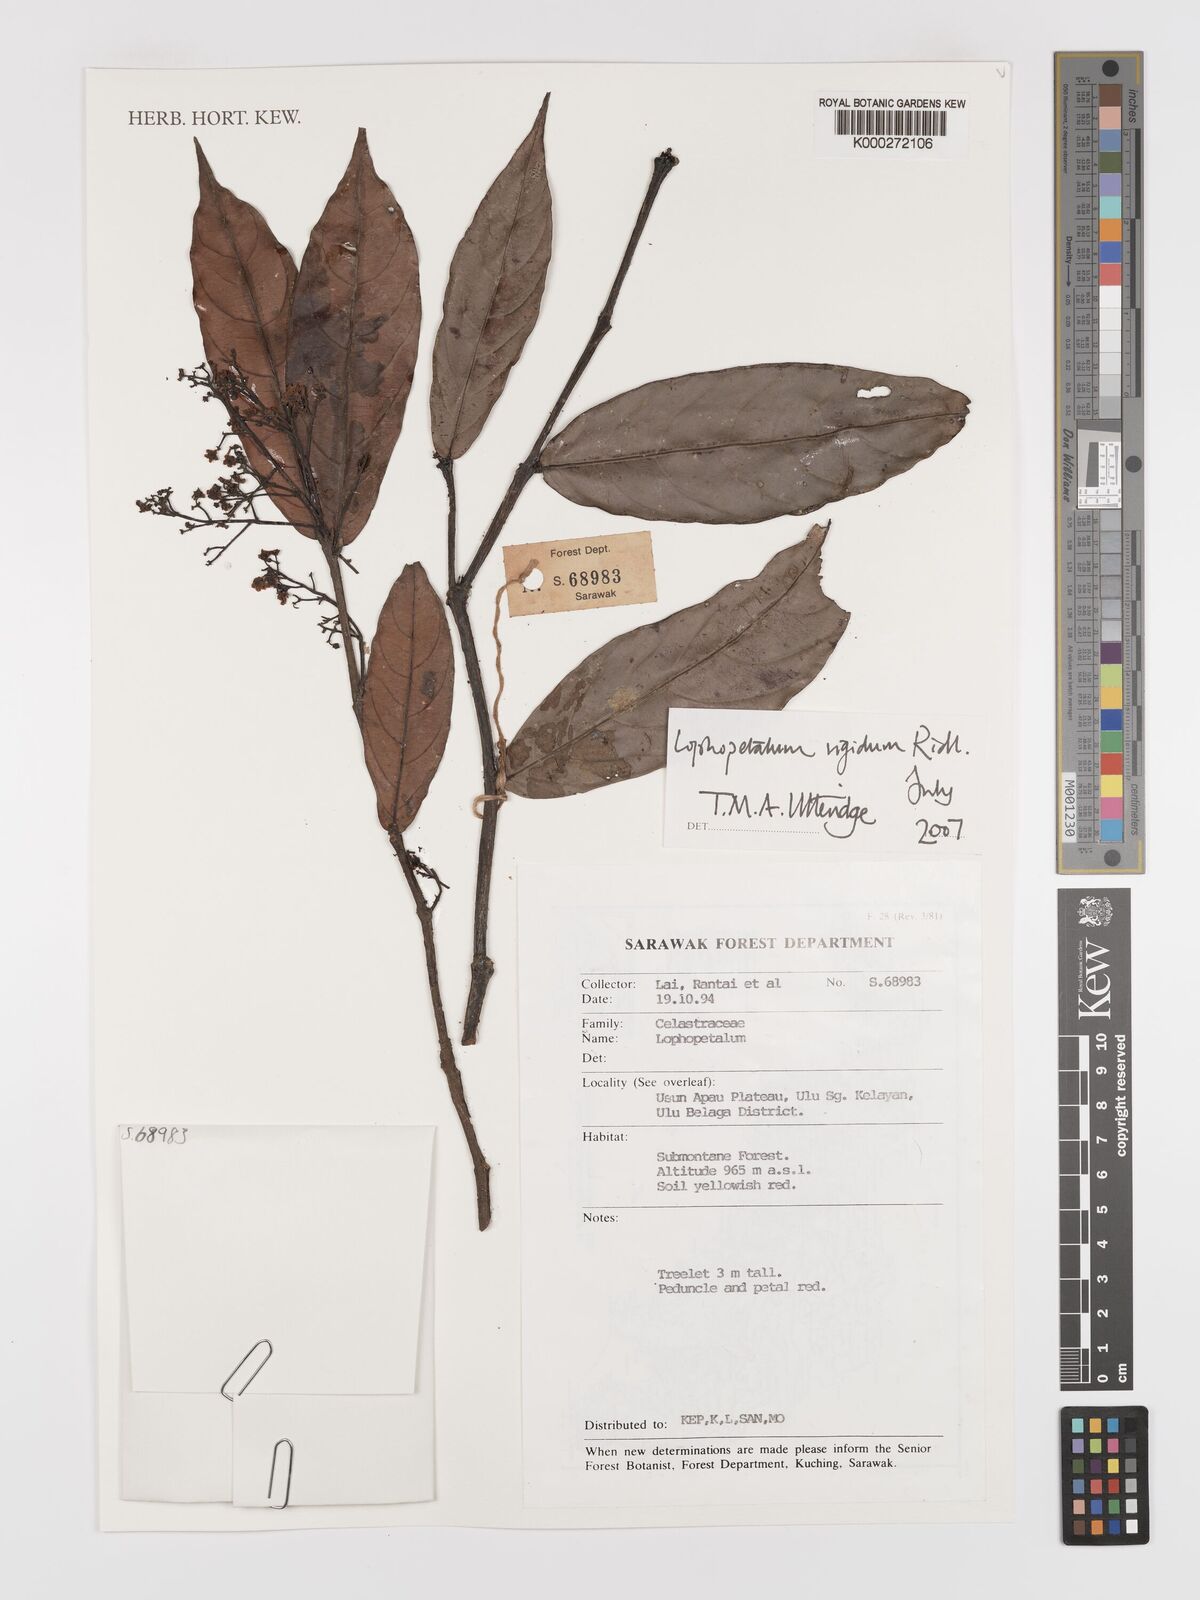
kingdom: Plantae
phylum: Tracheophyta
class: Magnoliopsida
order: Celastrales
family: Celastraceae
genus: Lophopetalum
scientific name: Lophopetalum rigidum
